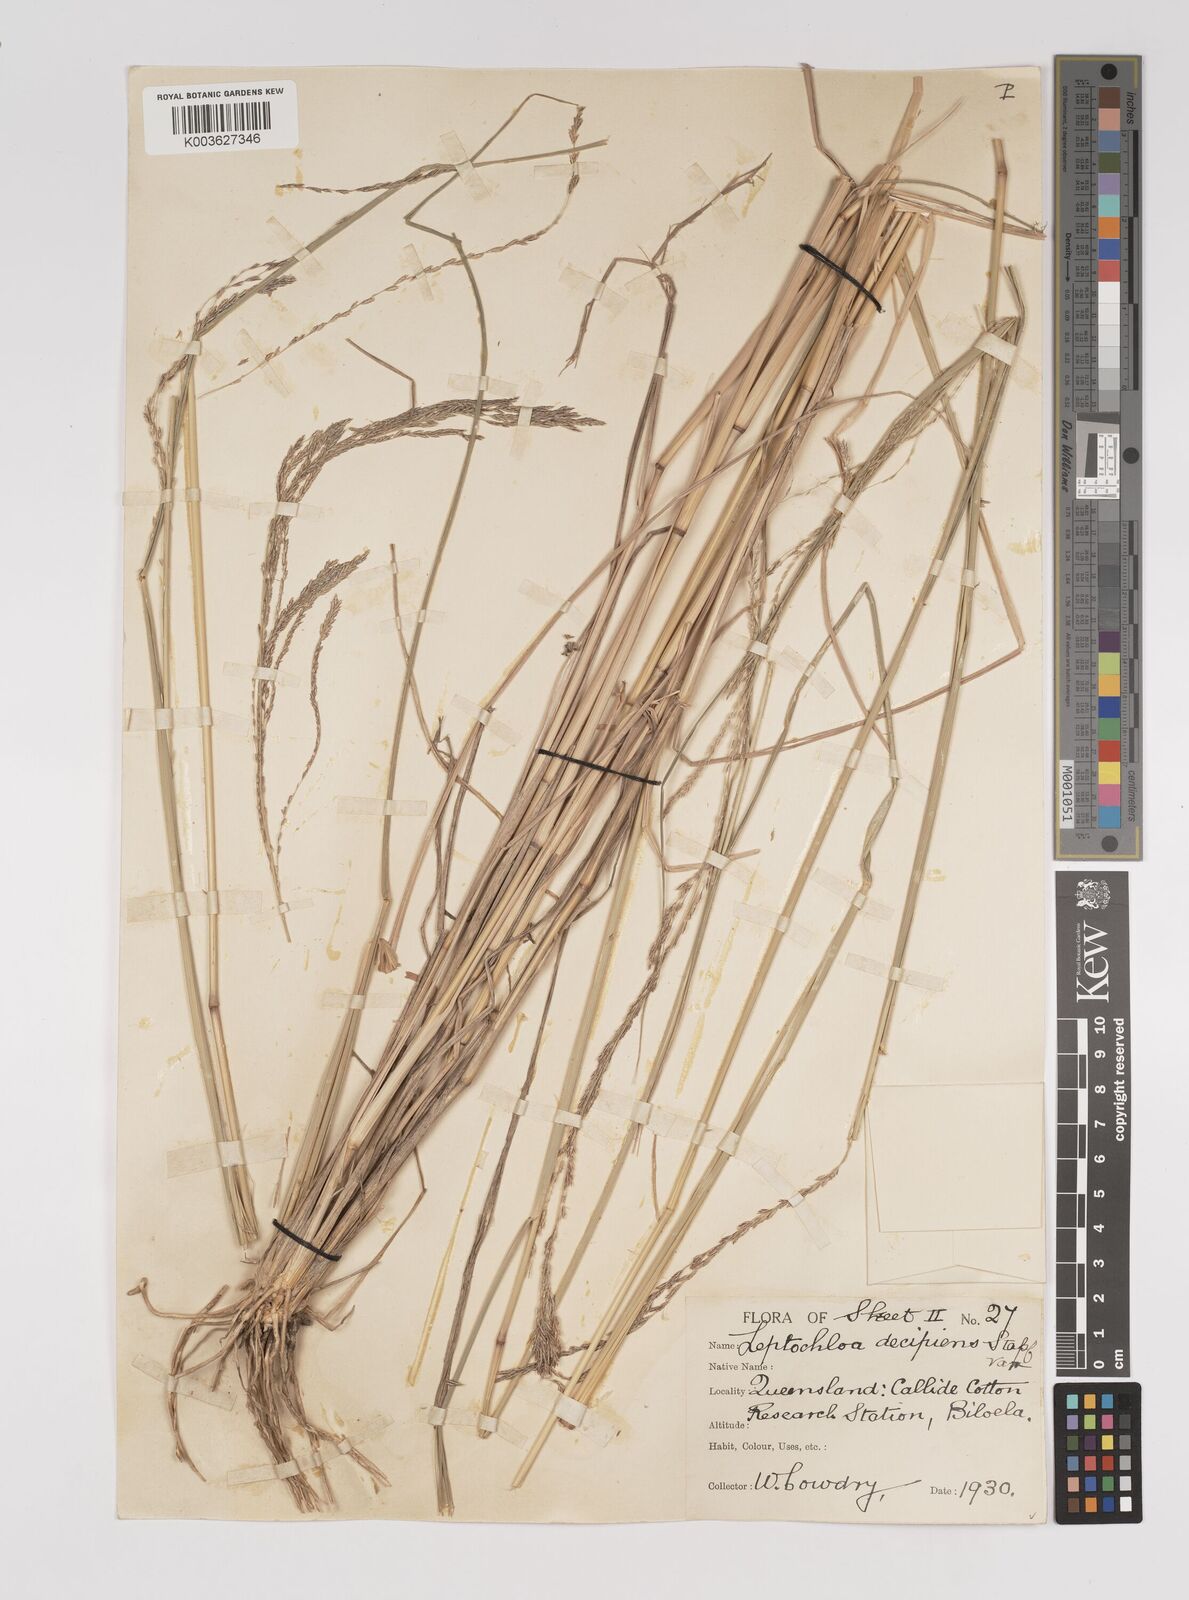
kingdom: Plantae
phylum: Tracheophyta
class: Liliopsida
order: Poales
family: Poaceae
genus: Leptochloa
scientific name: Leptochloa decipiens
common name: Australian sprangletop
